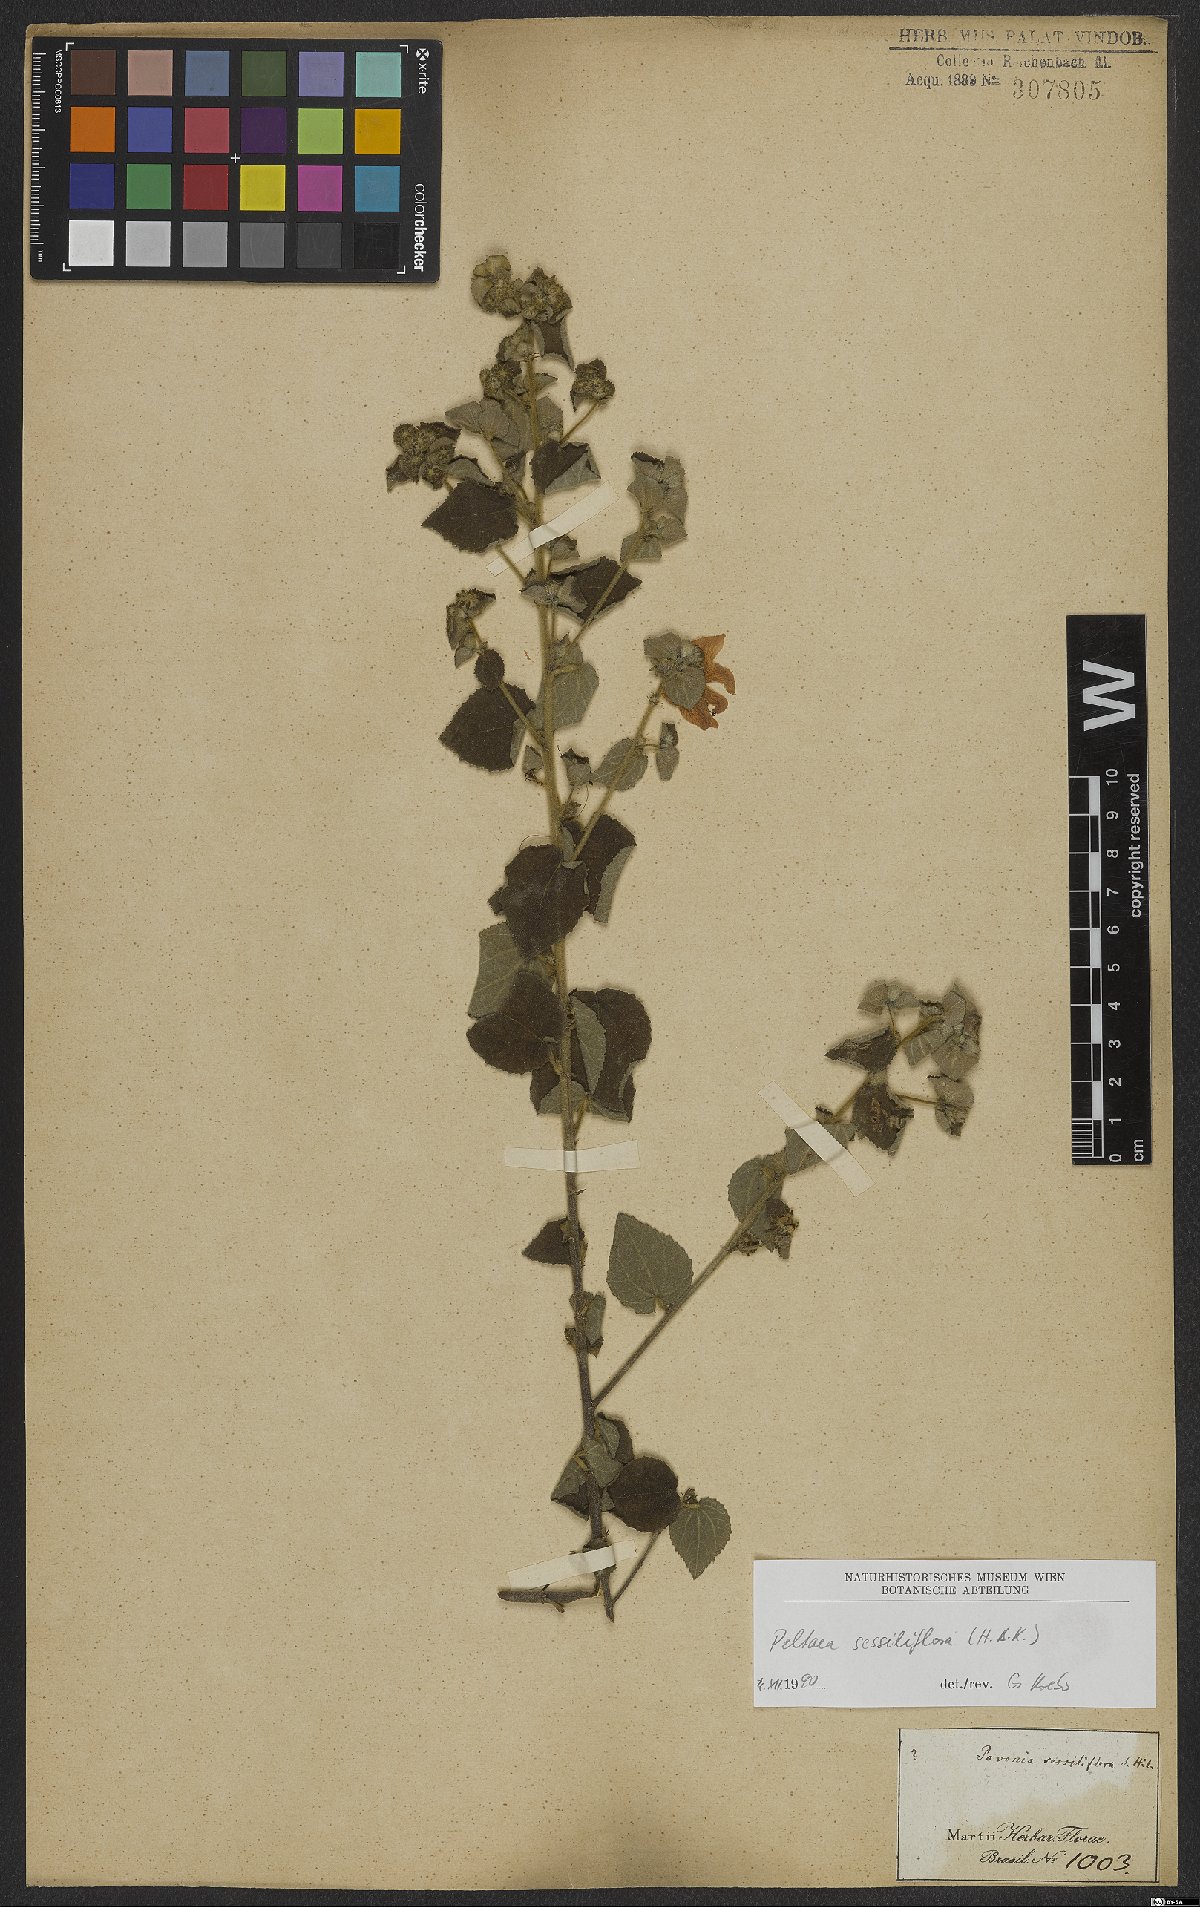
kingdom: Plantae
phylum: Tracheophyta
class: Magnoliopsida
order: Malvales
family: Malvaceae
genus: Peltaea
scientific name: Peltaea sessiliflora
